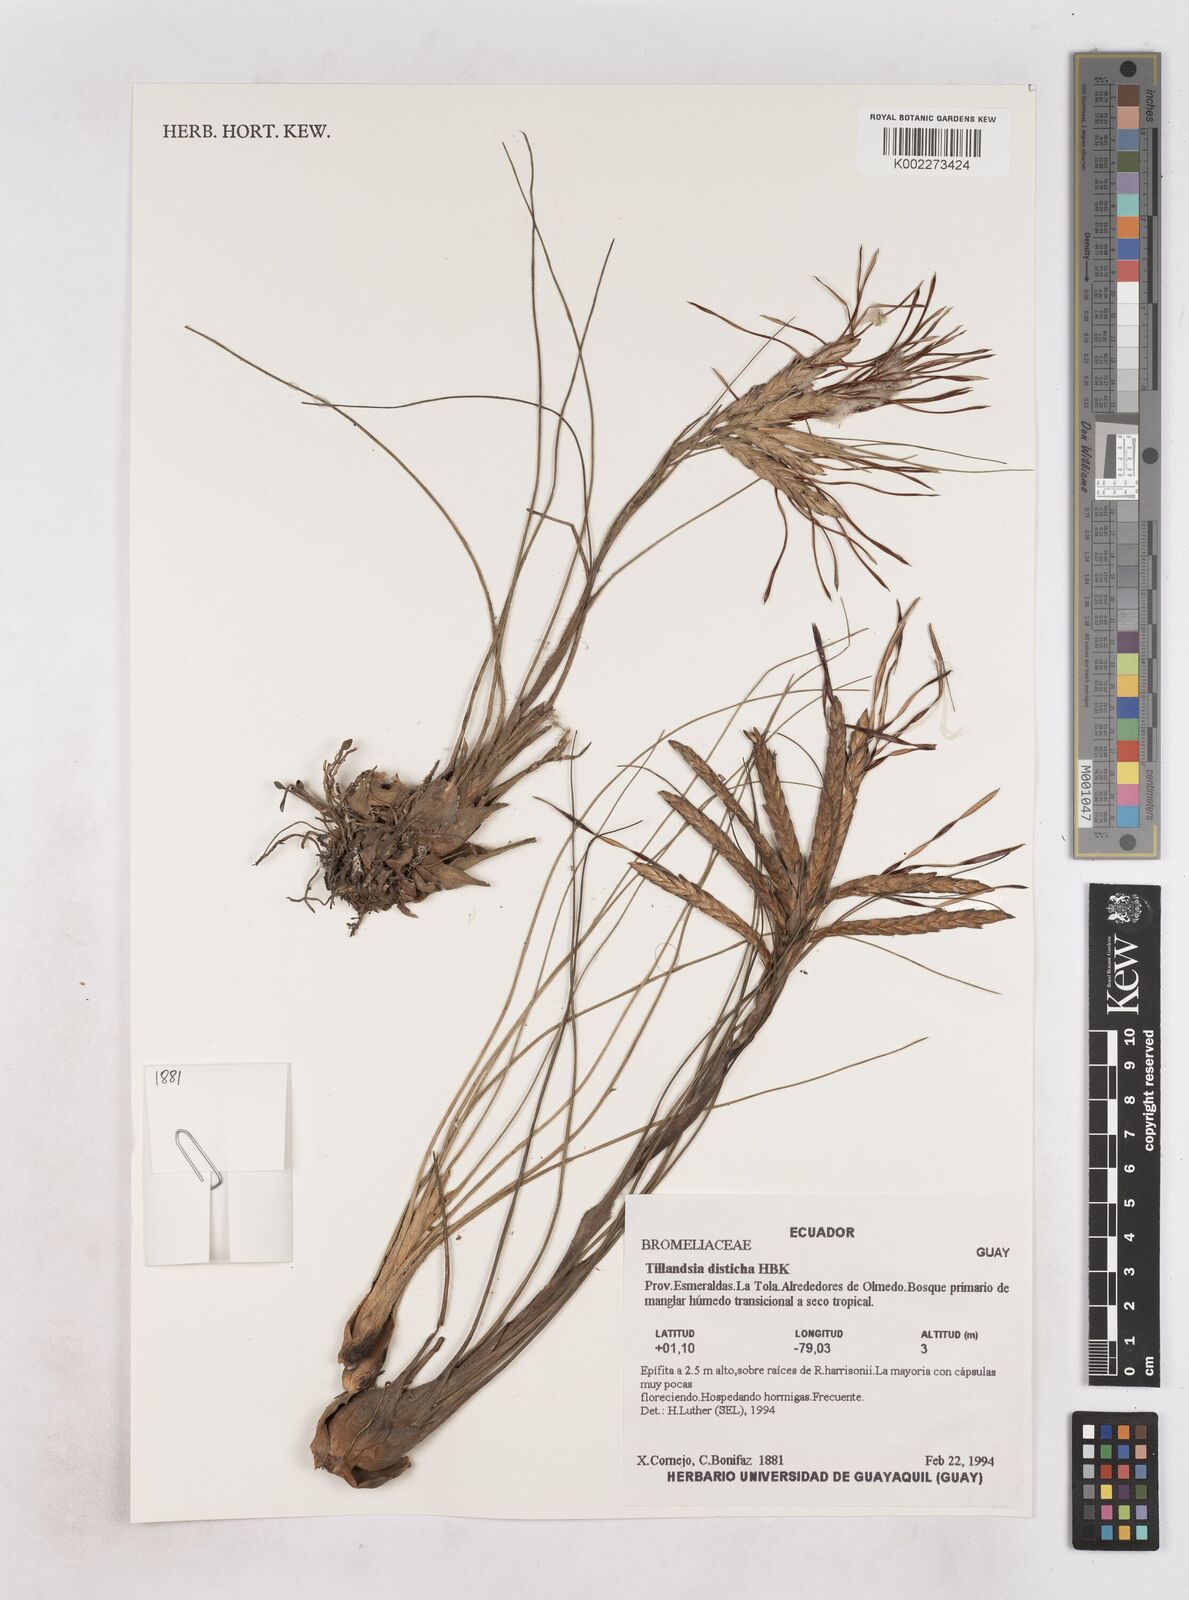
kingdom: Plantae
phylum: Tracheophyta
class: Liliopsida
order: Poales
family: Bromeliaceae
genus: Tillandsia
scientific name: Tillandsia
